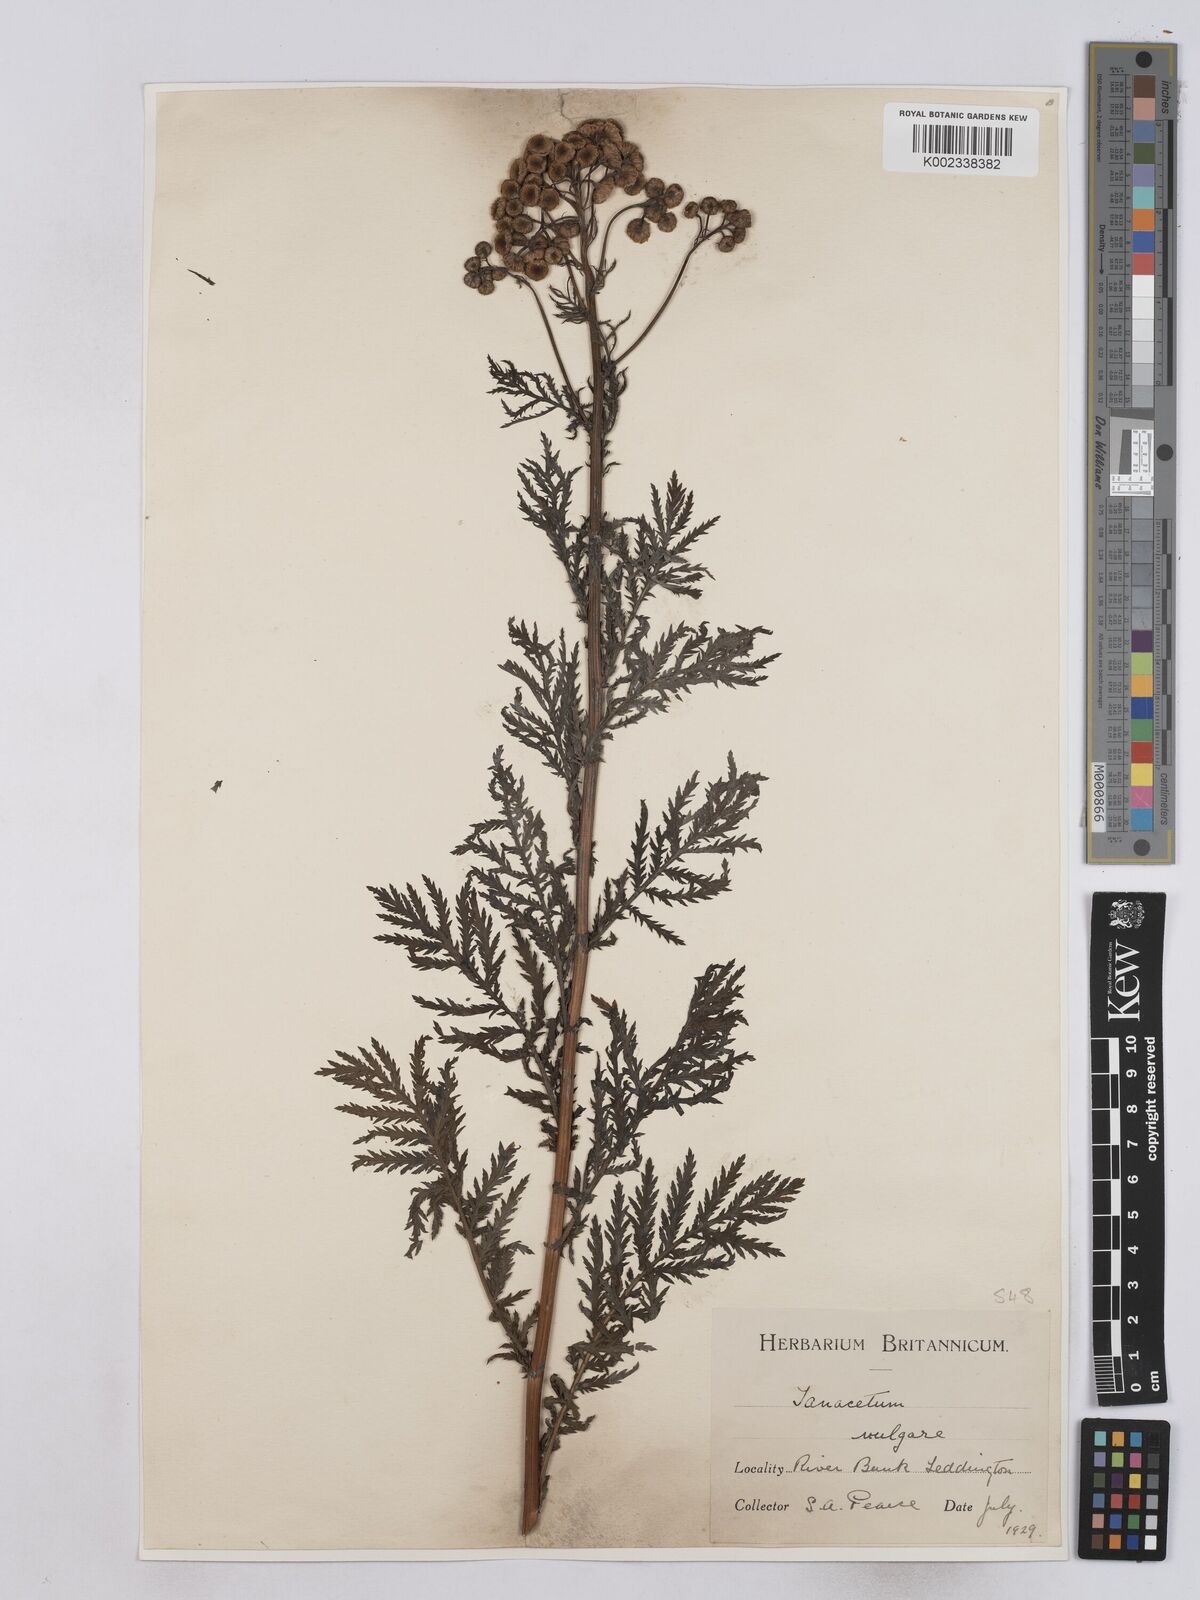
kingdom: Plantae
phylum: Tracheophyta
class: Magnoliopsida
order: Asterales
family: Asteraceae
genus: Tanacetum
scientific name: Tanacetum vulgare
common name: Common tansy
